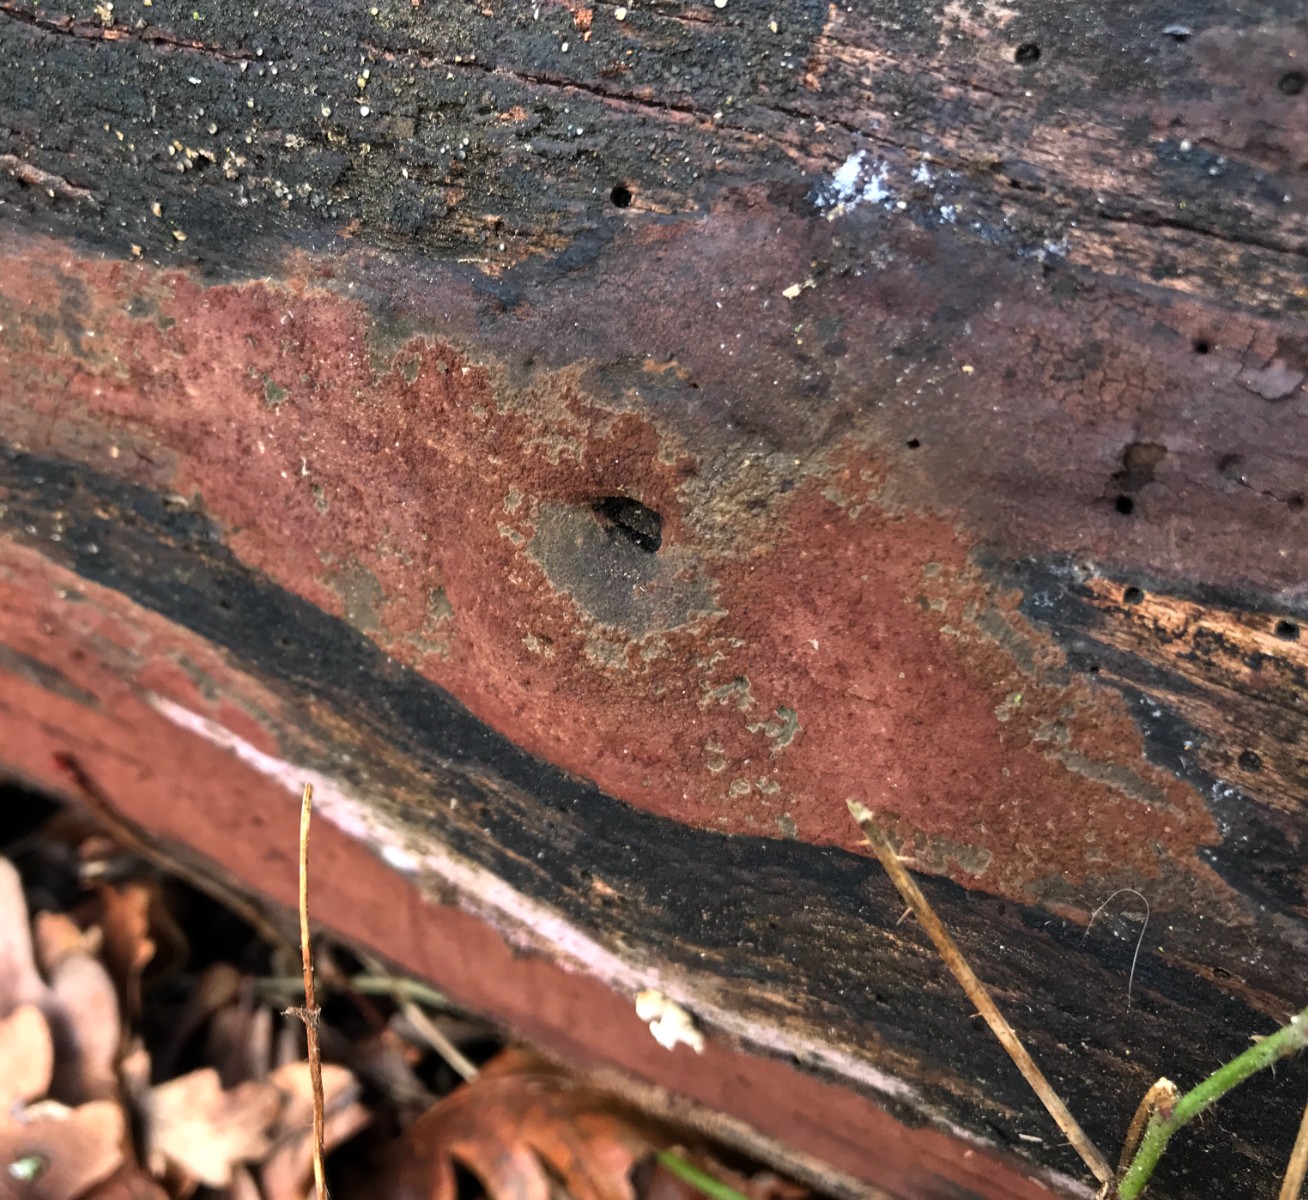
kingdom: Fungi
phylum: Ascomycota
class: Sordariomycetes
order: Xylariales
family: Hypoxylaceae
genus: Hypoxylon
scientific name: Hypoxylon
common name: kulbær
